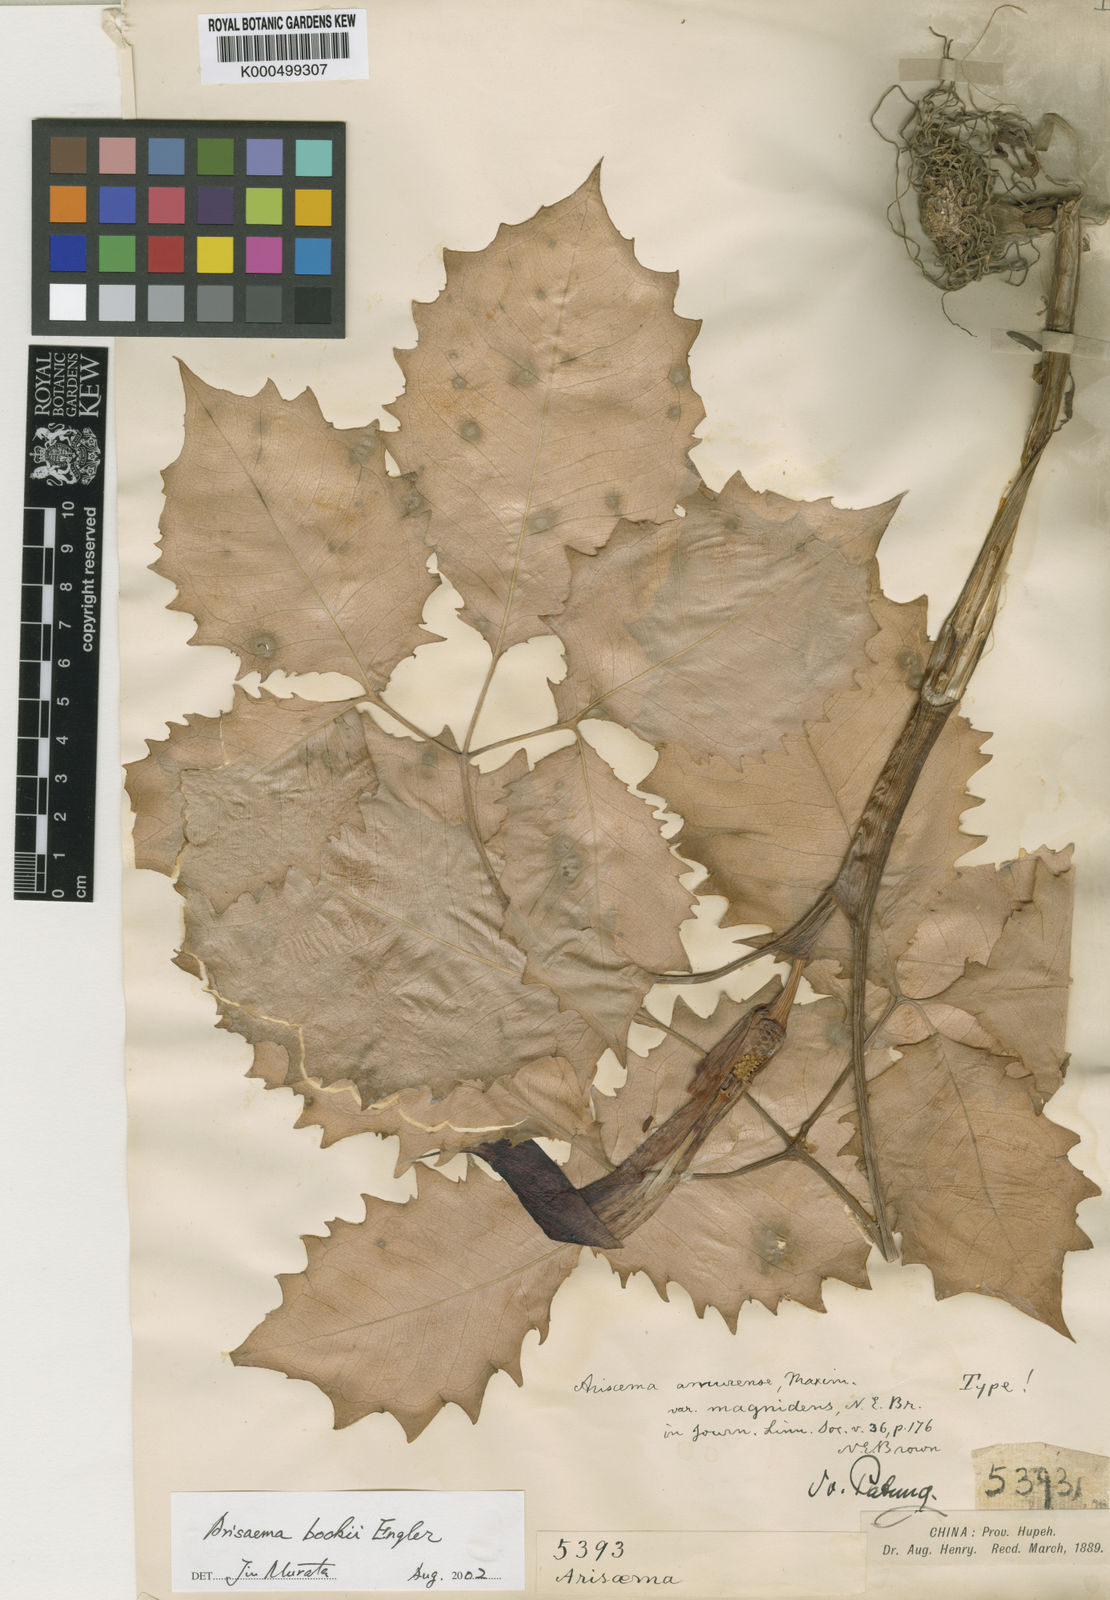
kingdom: Plantae
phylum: Tracheophyta
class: Liliopsida
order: Alismatales
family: Araceae
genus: Arisaema
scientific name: Arisaema amurense
